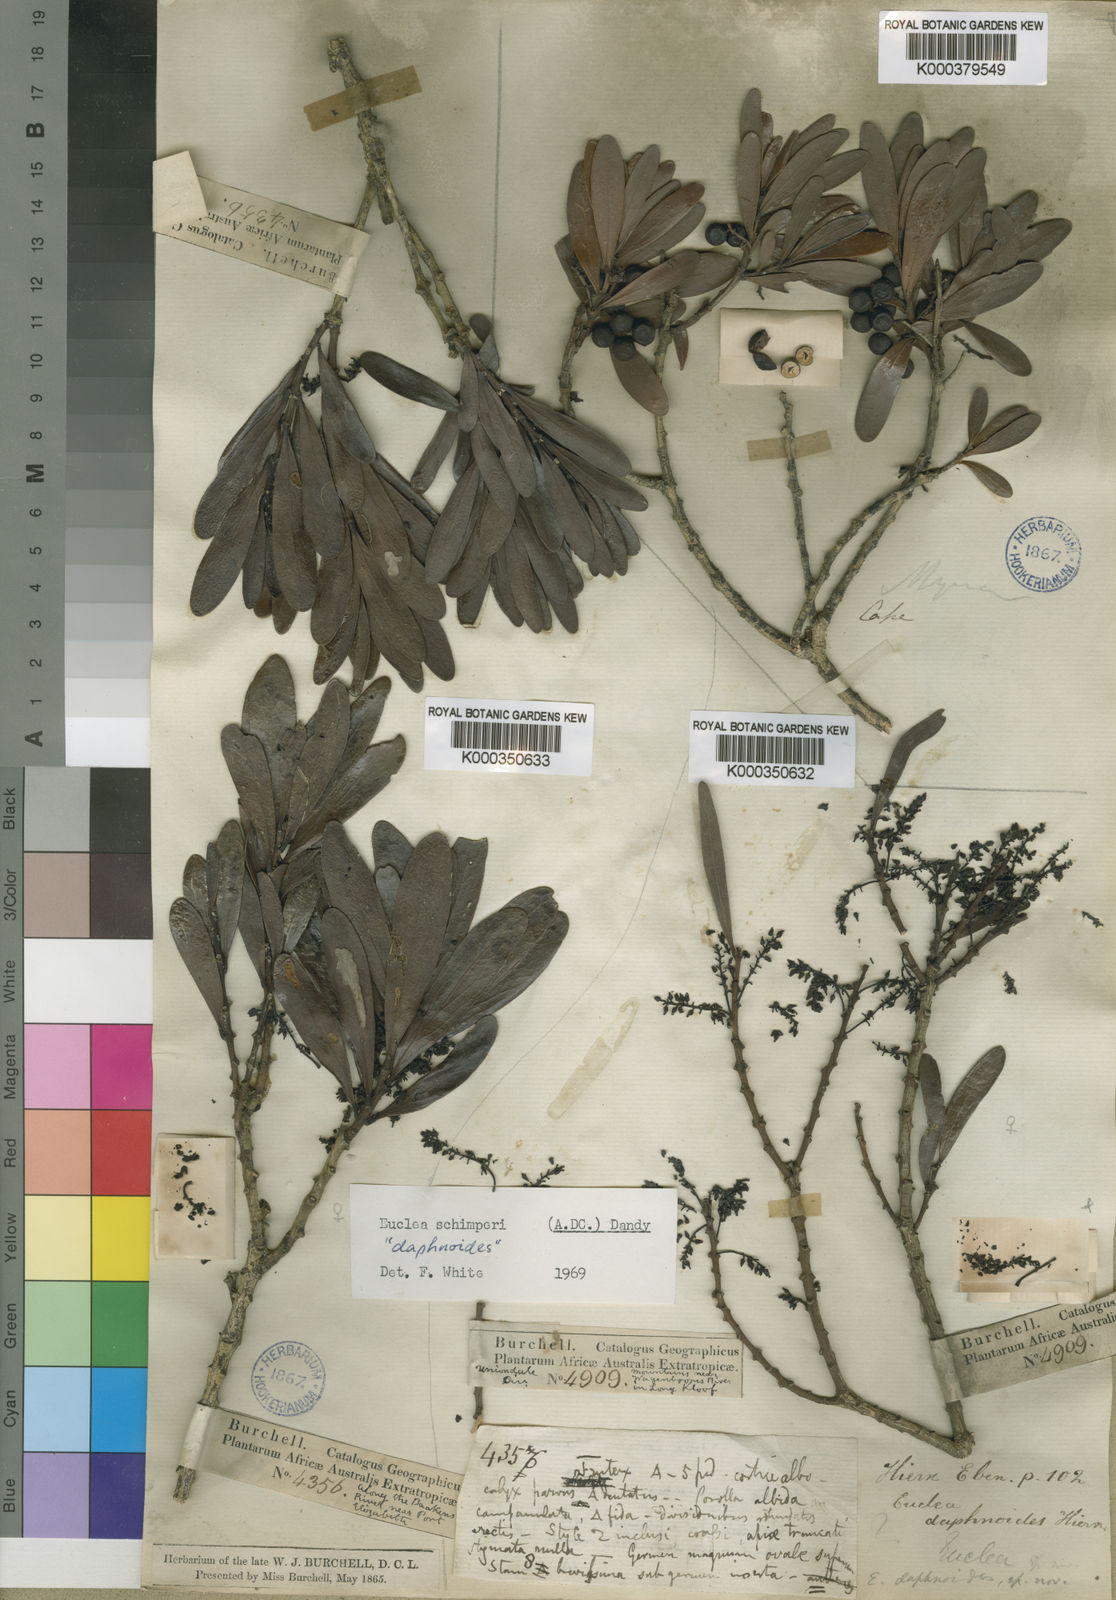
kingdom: Plantae
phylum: Tracheophyta
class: Magnoliopsida
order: Ericales
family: Ebenaceae
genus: Euclea
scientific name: Euclea racemosa
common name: Dune guarri
